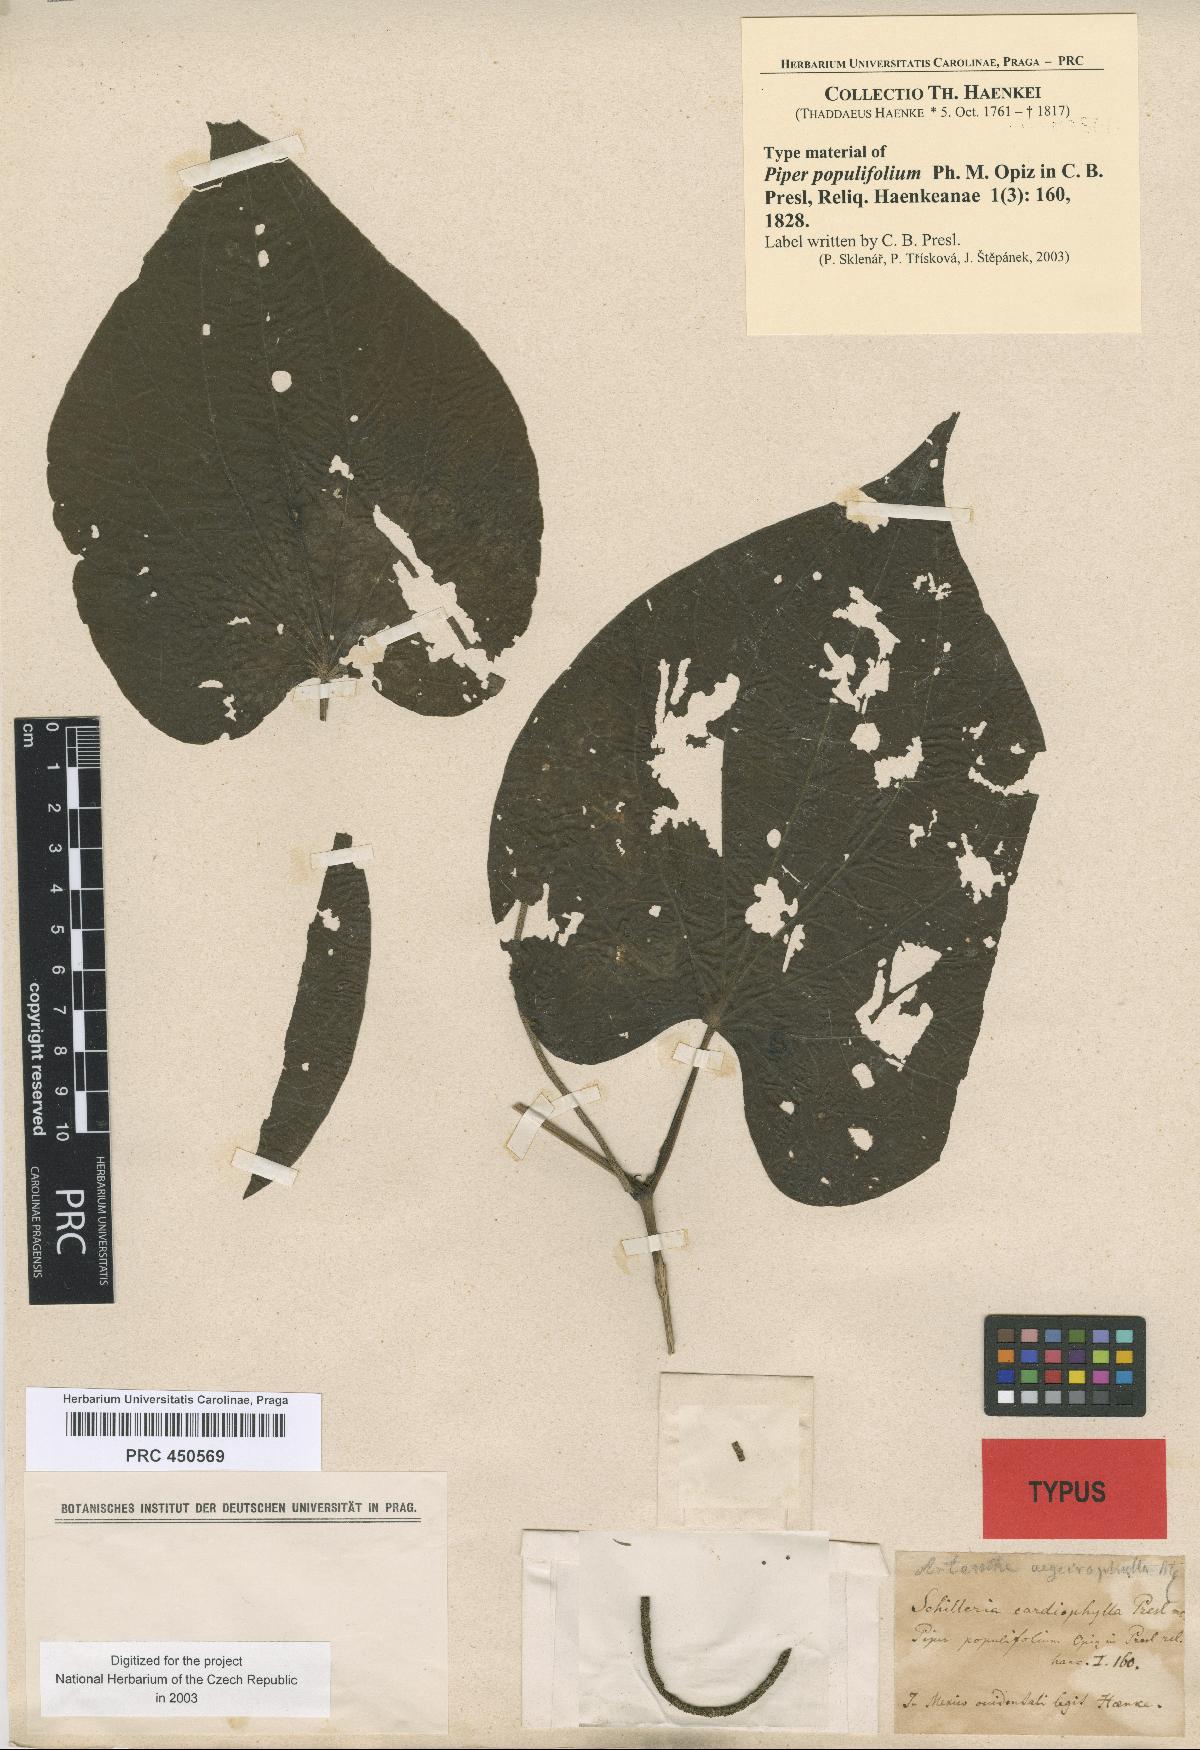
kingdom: Plantae
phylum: Tracheophyta
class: Magnoliopsida
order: Piperales
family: Piperaceae
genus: Piper
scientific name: Piper populifolium
